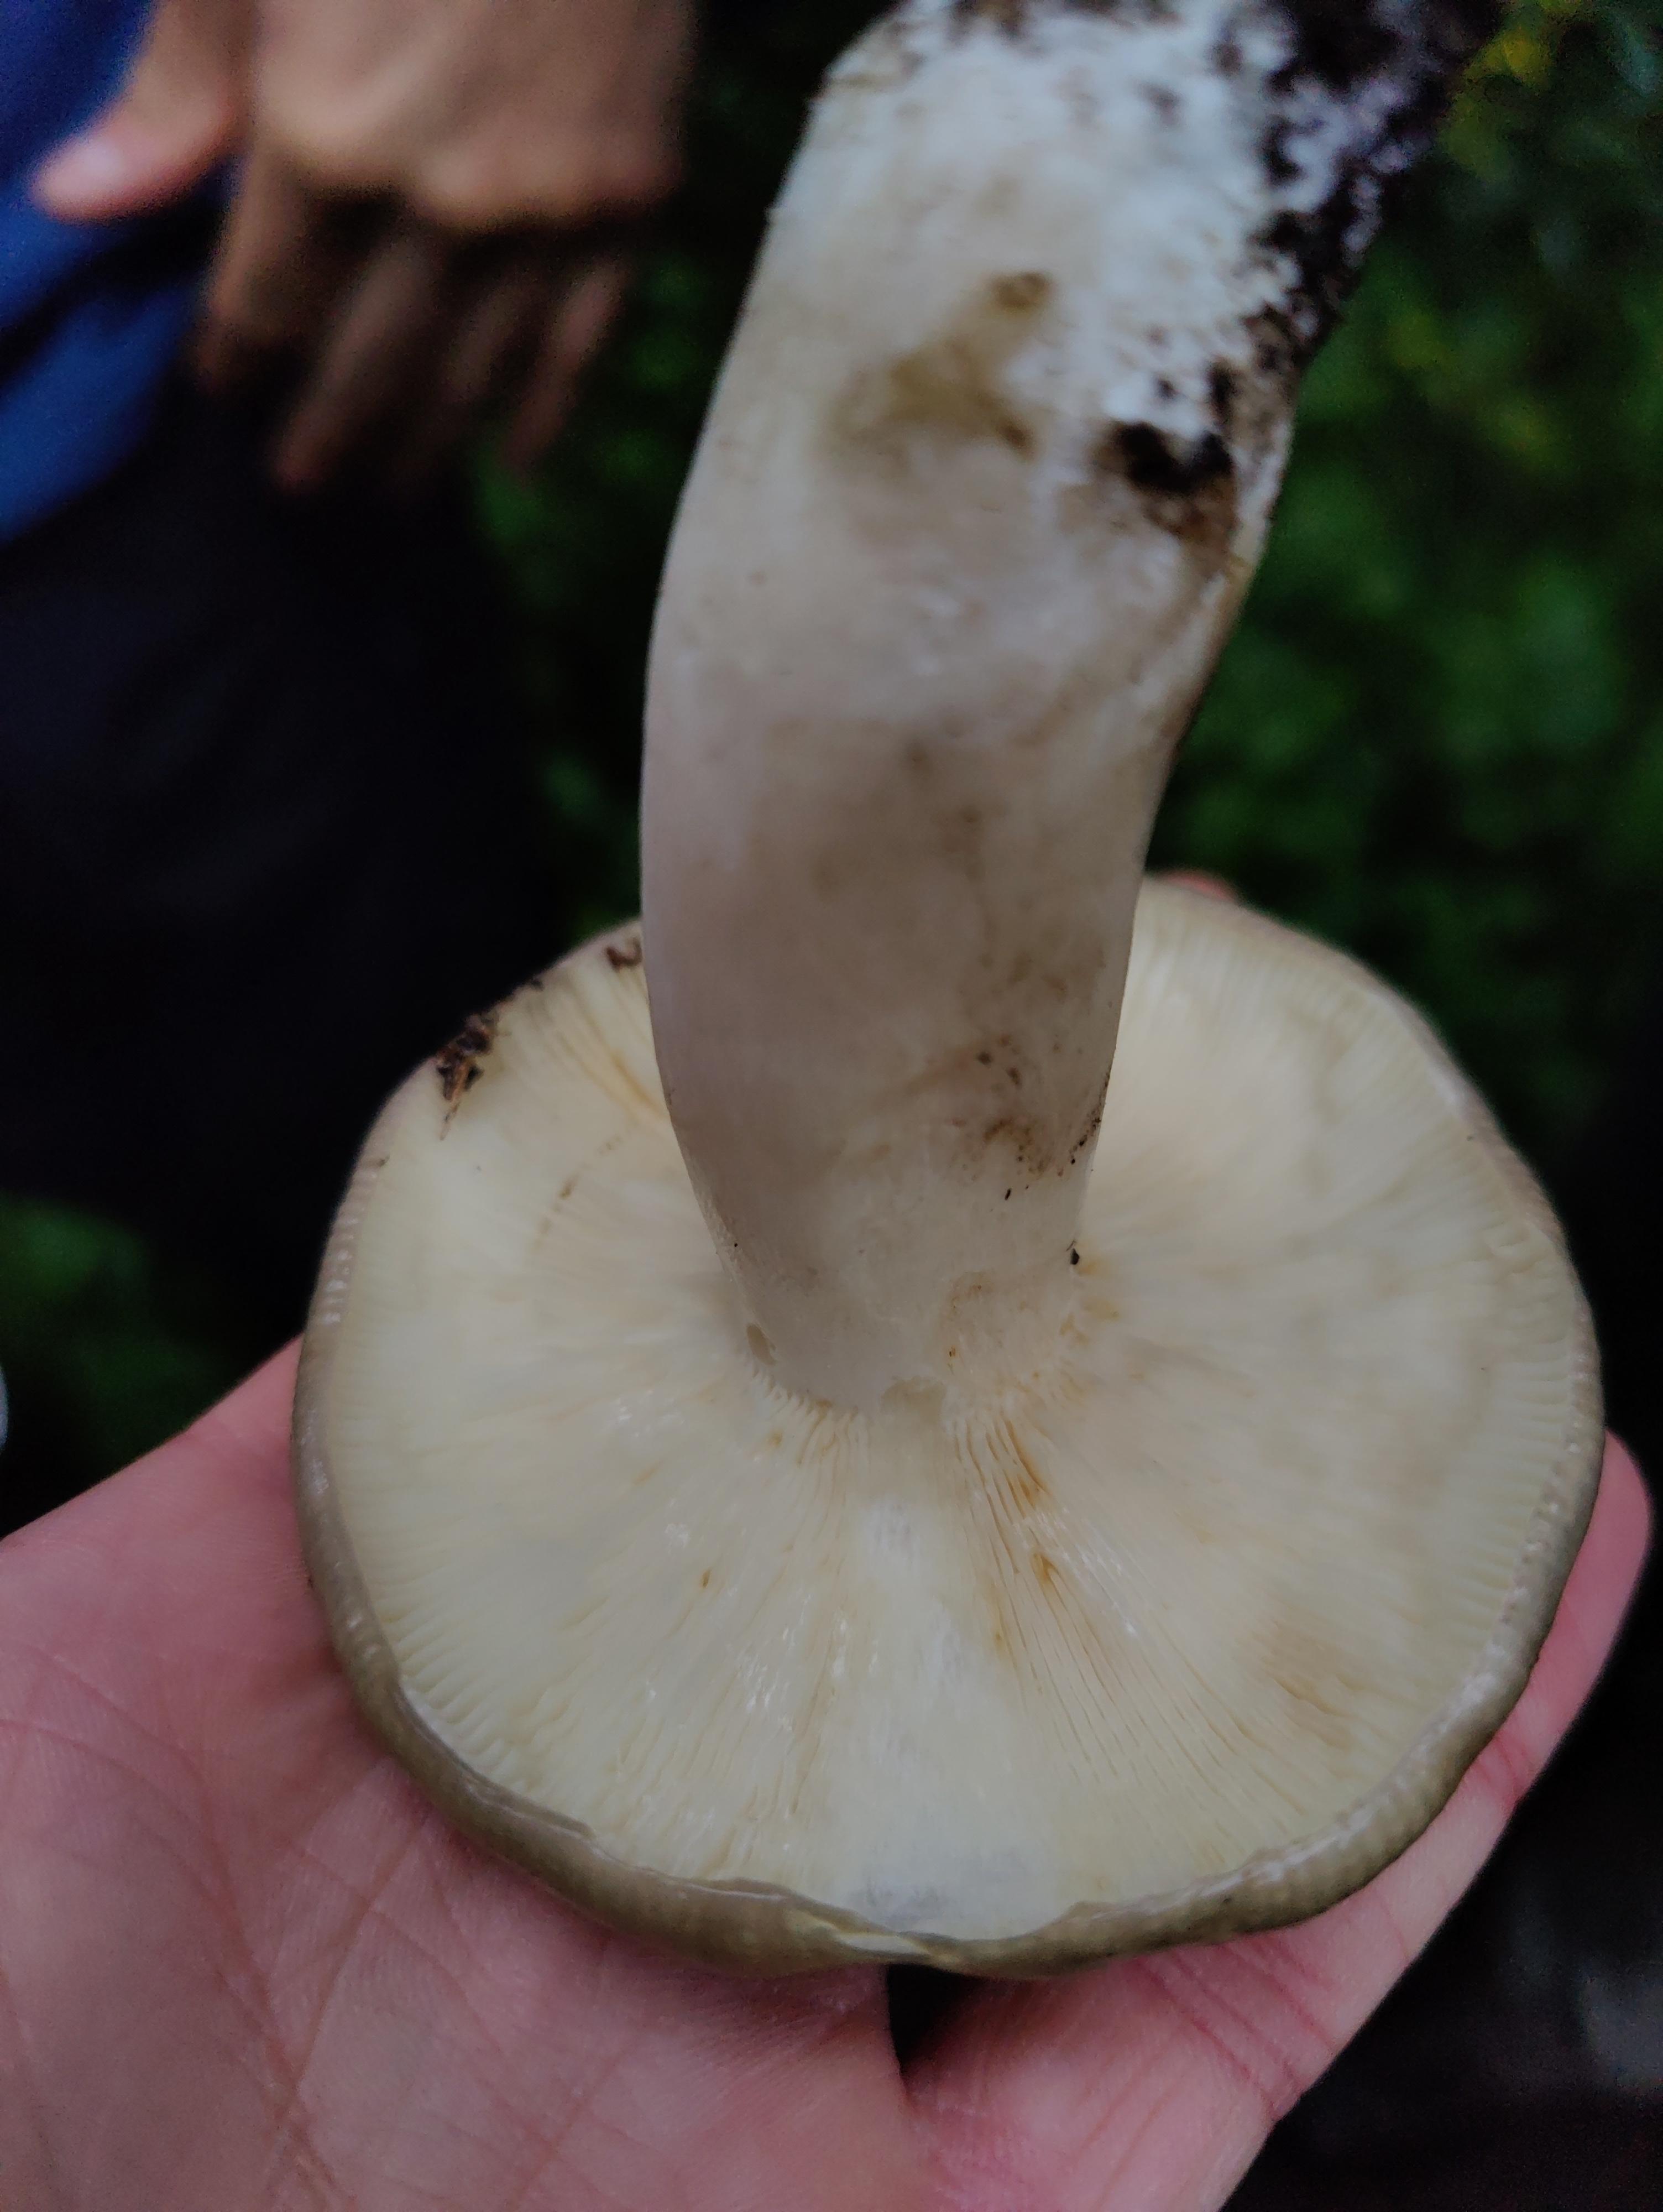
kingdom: Fungi
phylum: Basidiomycota
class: Agaricomycetes
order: Russulales
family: Russulaceae
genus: Russula
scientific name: Russula
